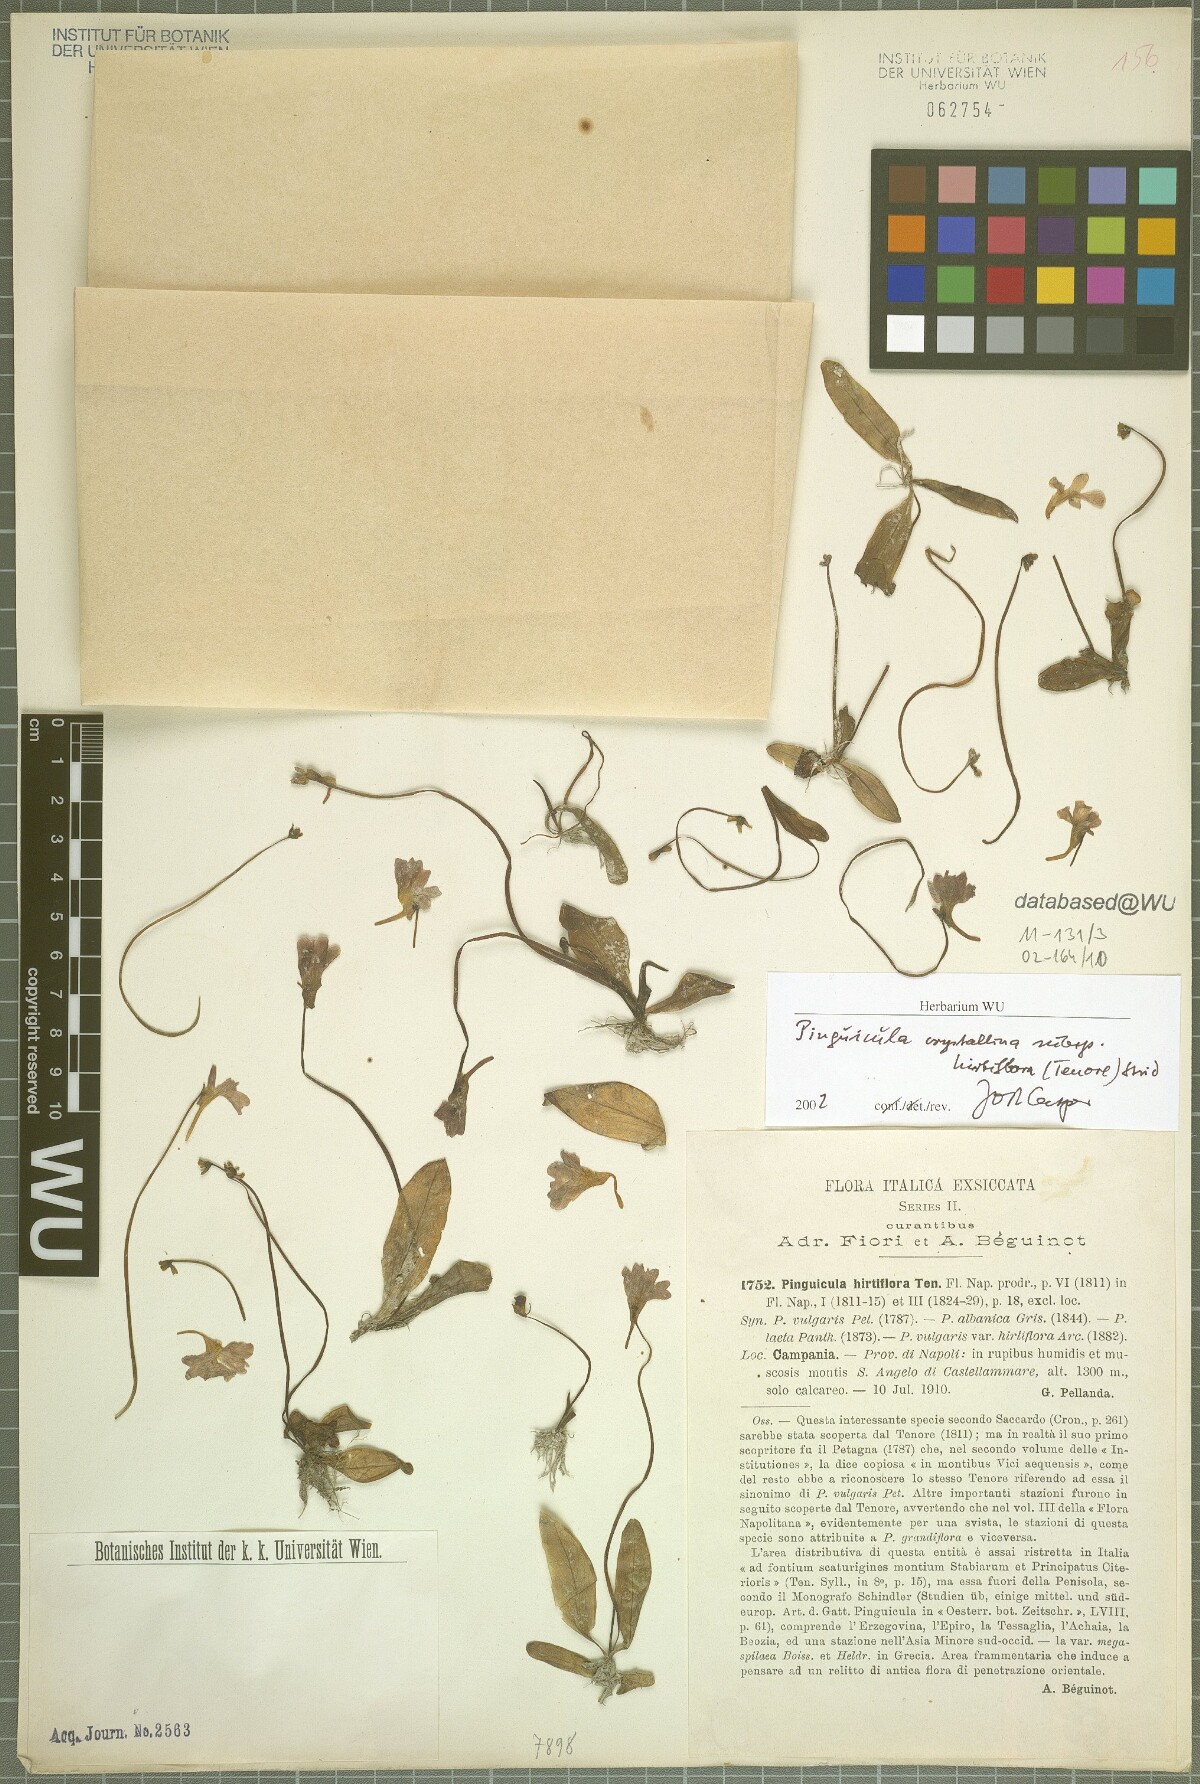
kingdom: Plantae
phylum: Tracheophyta
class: Magnoliopsida
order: Lamiales
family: Lentibulariaceae
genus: Pinguicula
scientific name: Pinguicula crystallina
